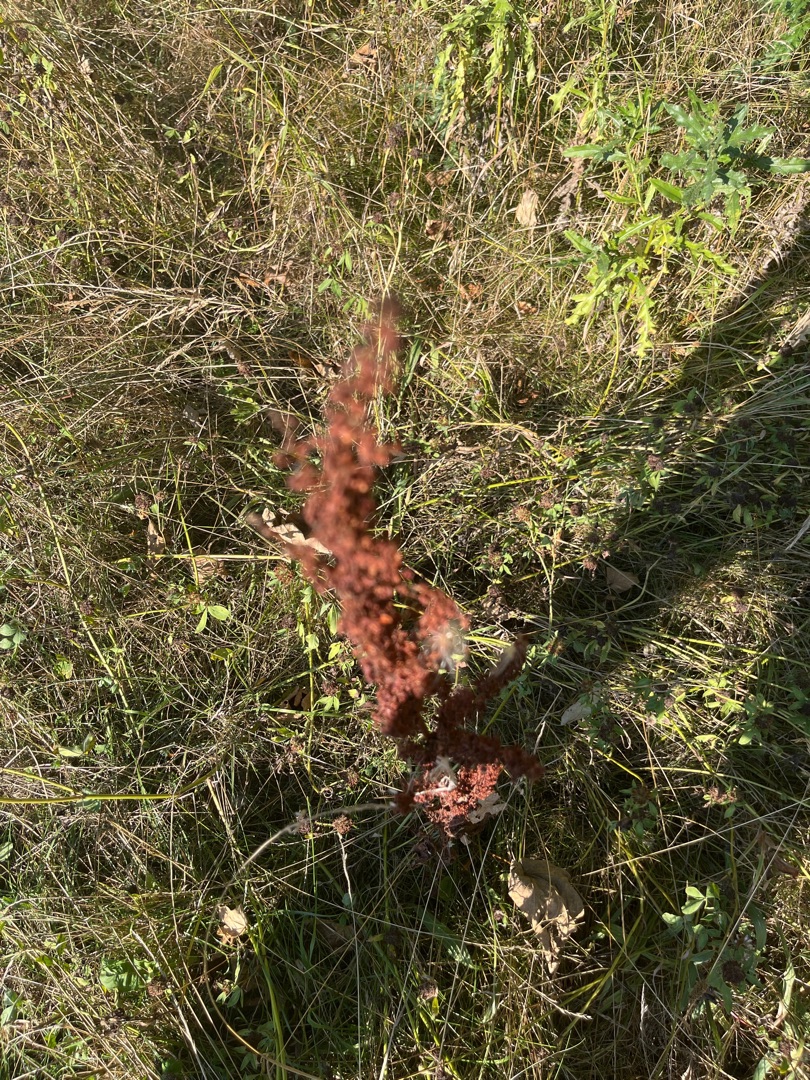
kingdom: Plantae
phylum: Tracheophyta
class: Magnoliopsida
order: Caryophyllales
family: Polygonaceae
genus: Rumex
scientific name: Rumex
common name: Skræppeslægten
